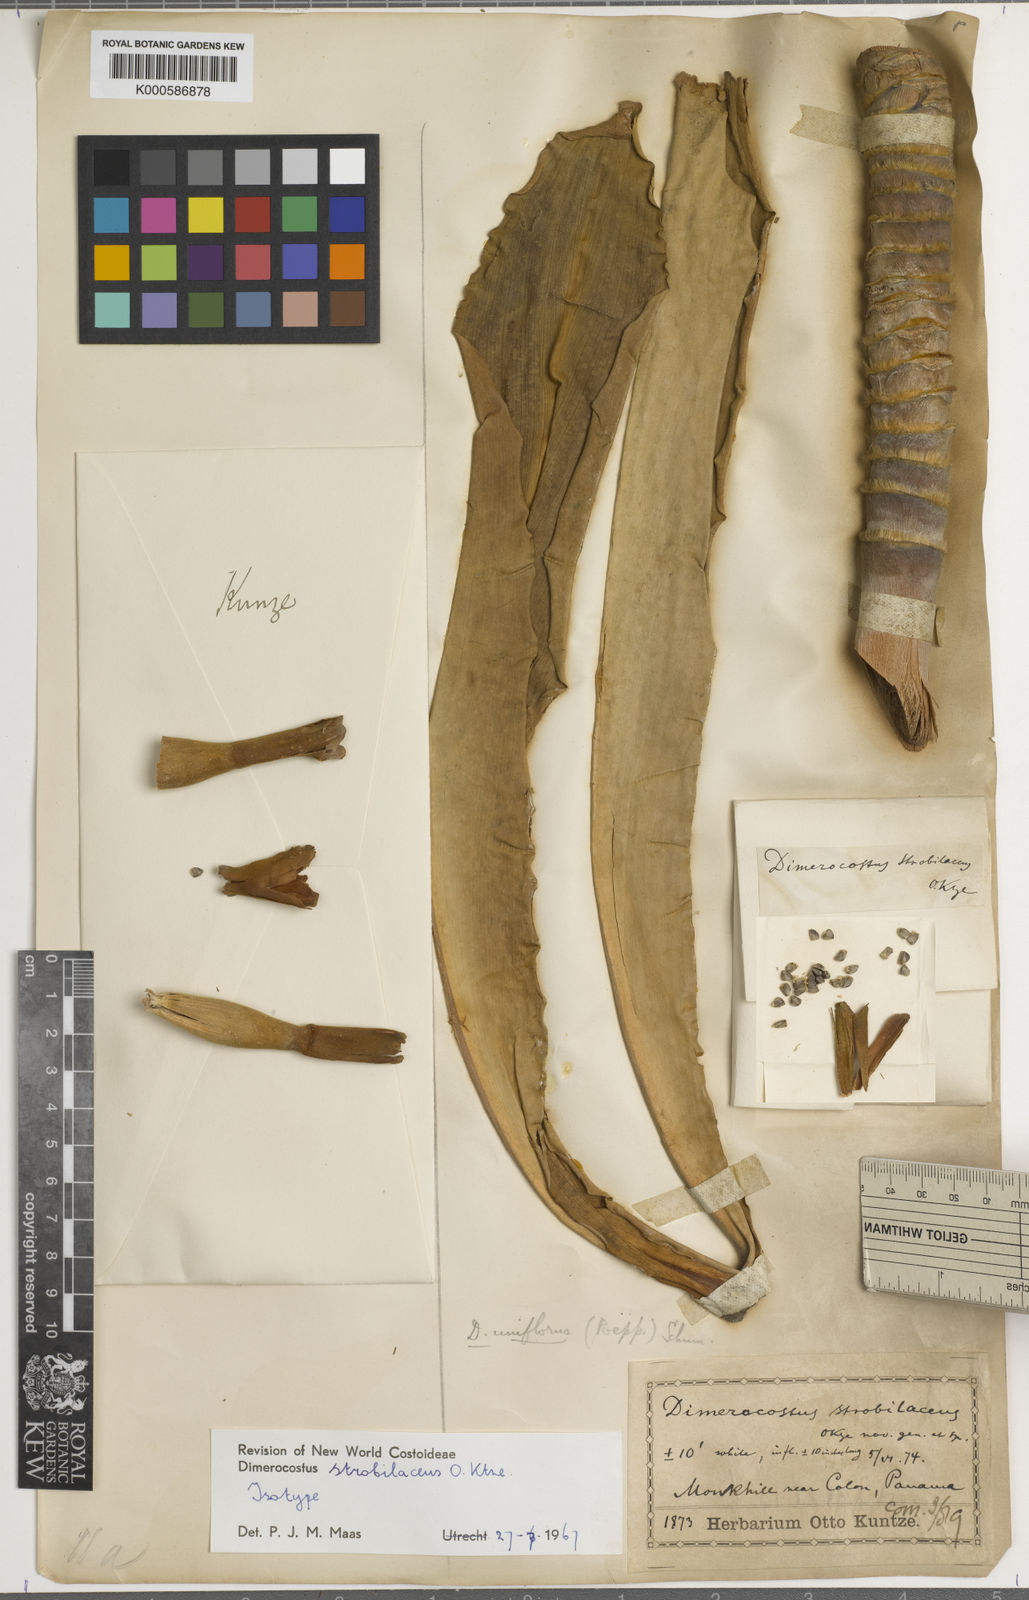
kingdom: Plantae
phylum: Tracheophyta
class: Liliopsida
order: Zingiberales
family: Costaceae
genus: Dimerocostus
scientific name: Dimerocostus strobilaceus
